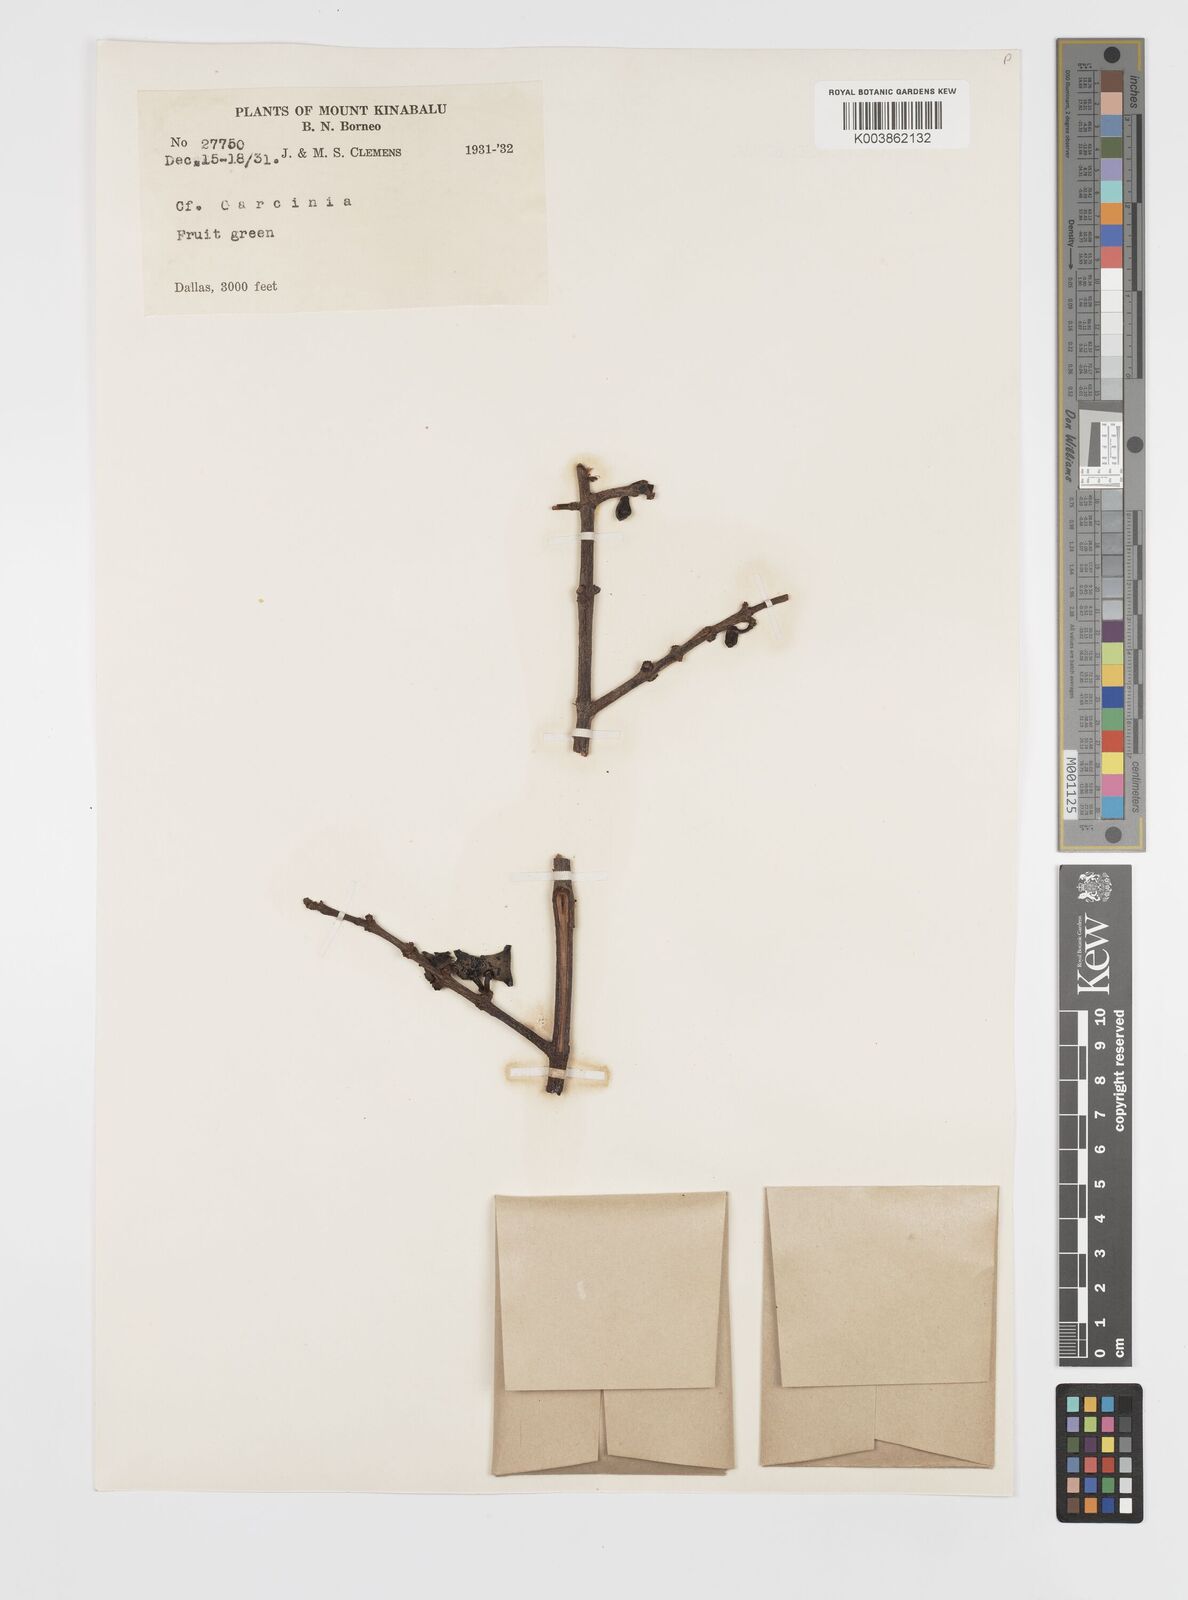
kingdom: Plantae
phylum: Tracheophyta
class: Magnoliopsida
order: Malpighiales
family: Clusiaceae
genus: Garcinia
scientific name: Garcinia
